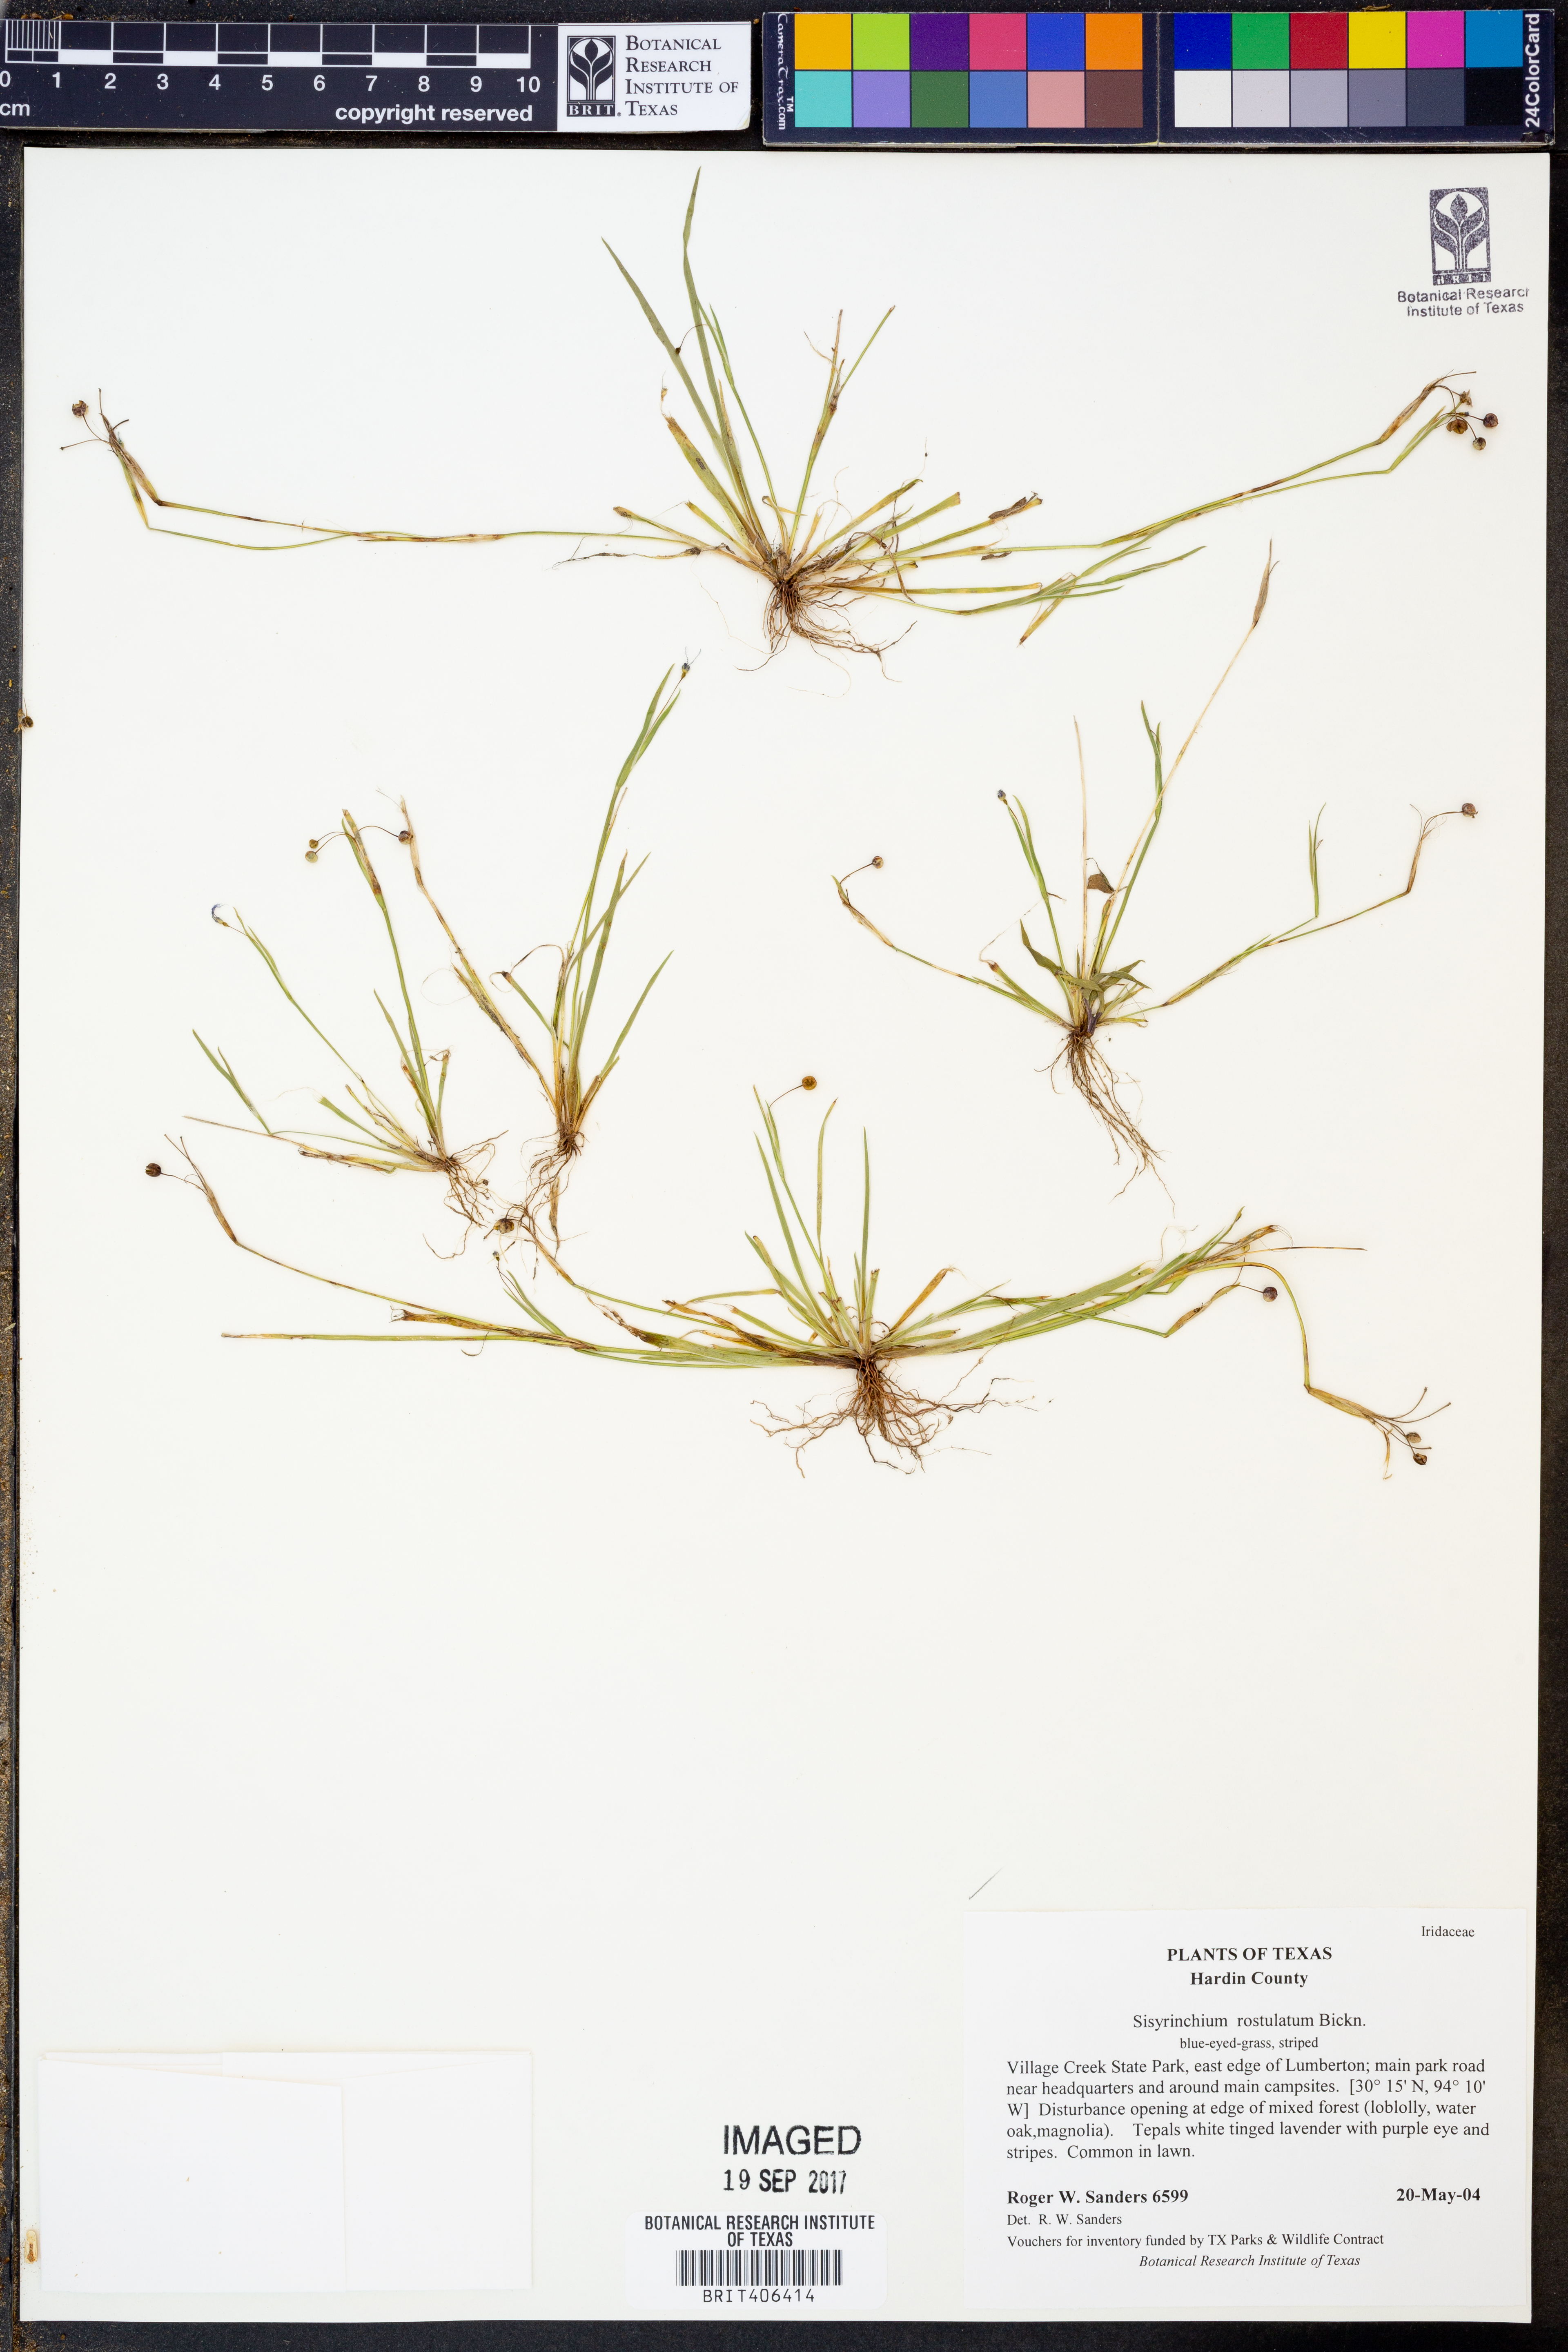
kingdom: Plantae
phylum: Tracheophyta
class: Liliopsida
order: Asparagales
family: Iridaceae
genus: Sisyrinchium
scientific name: Sisyrinchium rosulatum
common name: Annual blue-eyed grass
